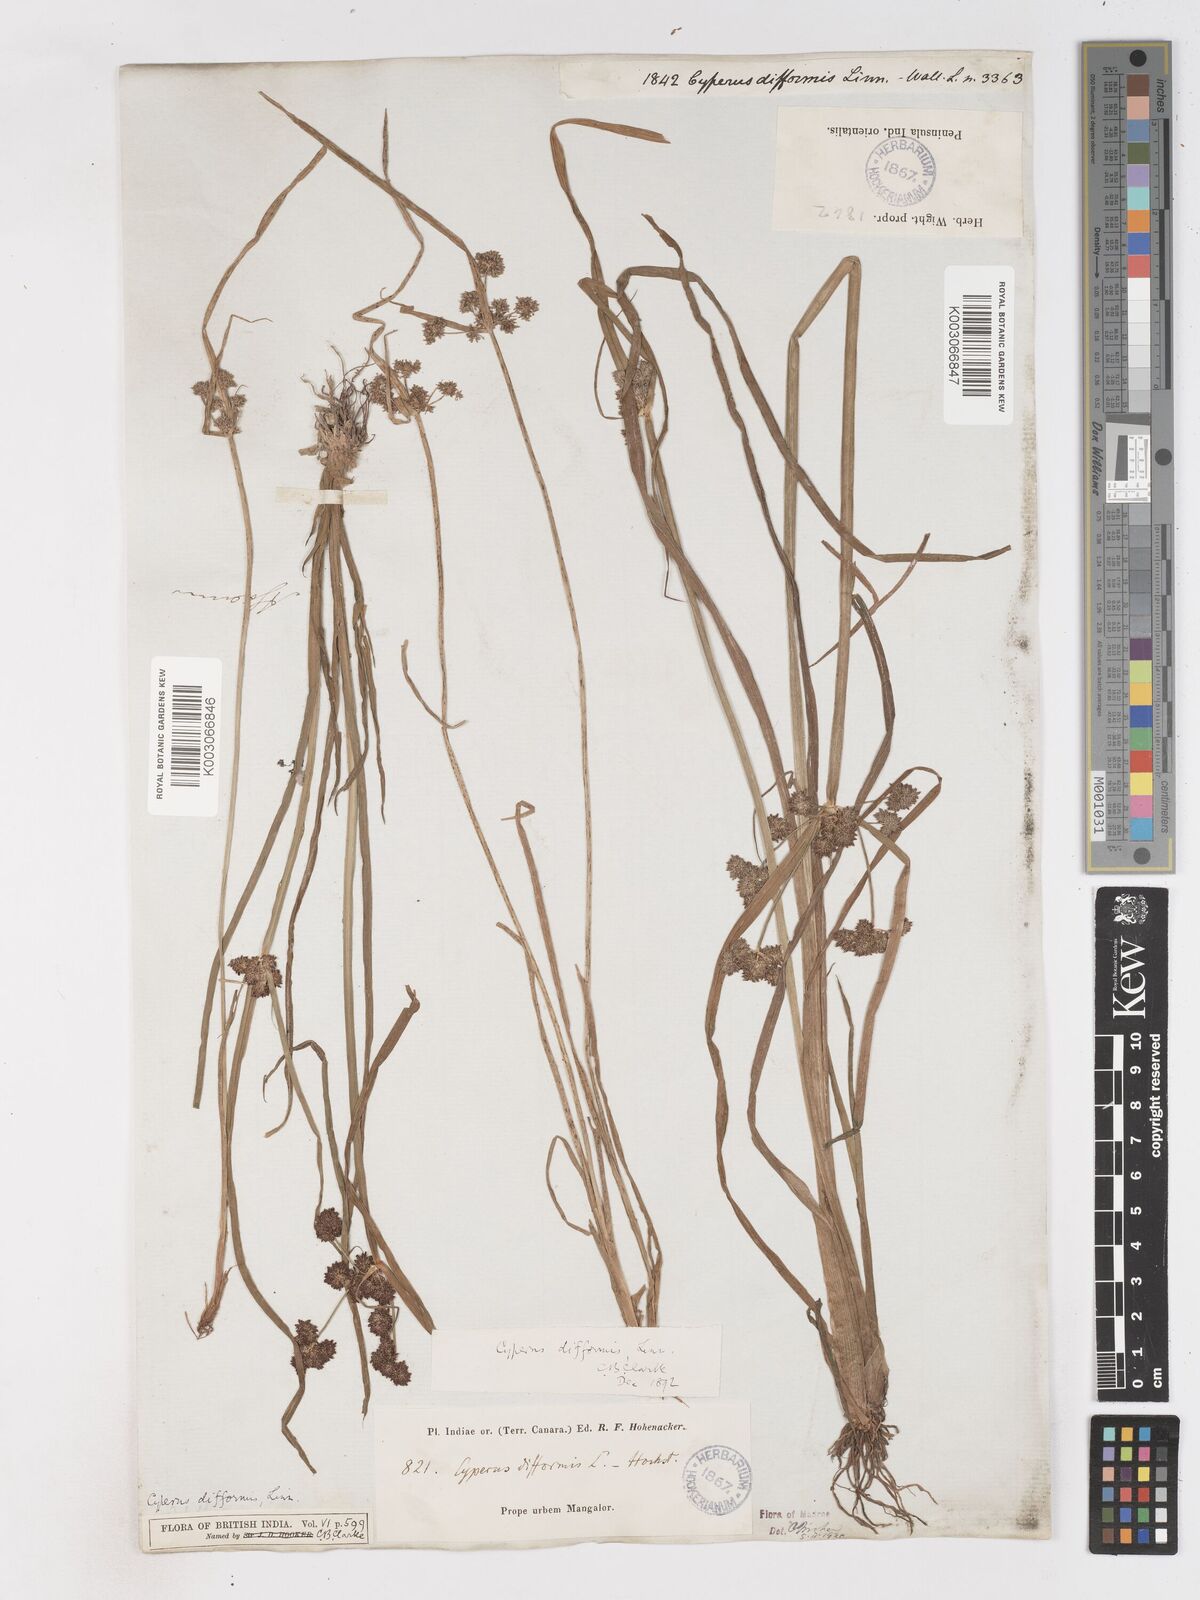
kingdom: Plantae
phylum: Tracheophyta
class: Liliopsida
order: Poales
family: Cyperaceae
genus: Cyperus
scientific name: Cyperus difformis
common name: Variable flatsedge
